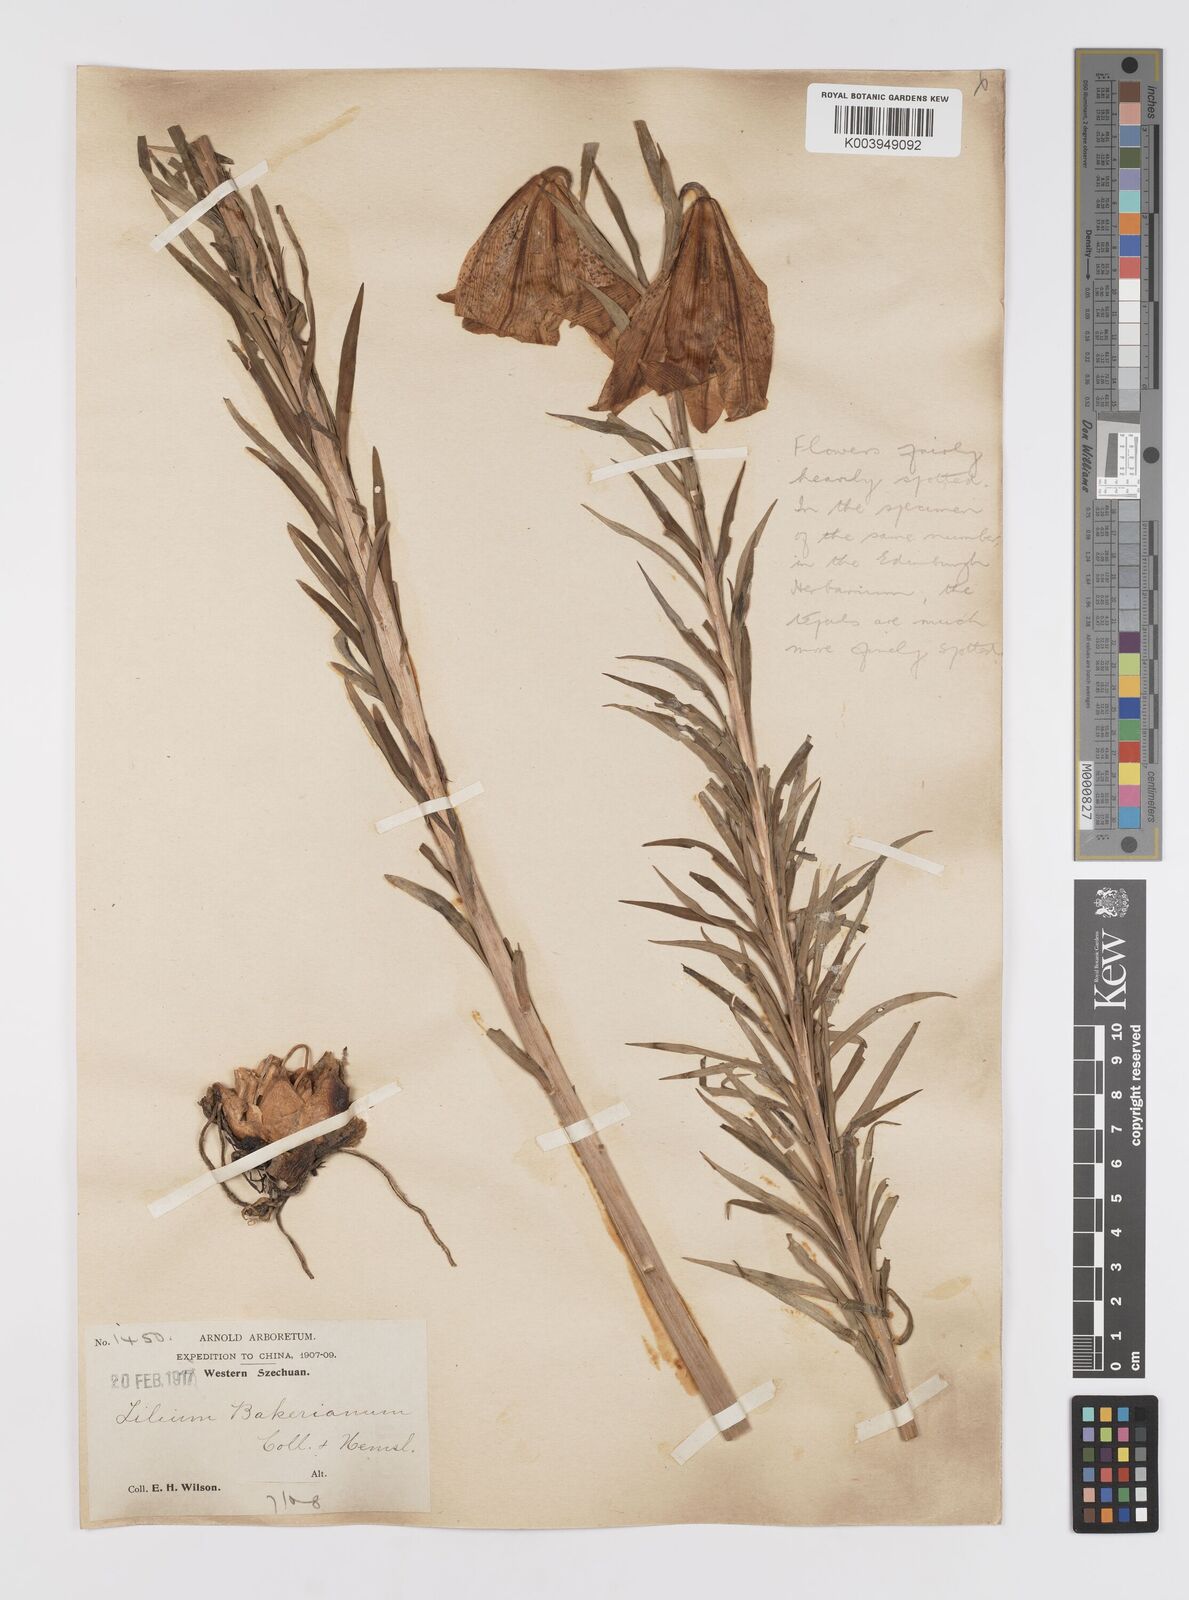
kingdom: Plantae
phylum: Tracheophyta
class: Liliopsida
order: Liliales
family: Liliaceae
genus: Lilium
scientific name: Lilium bakerianum
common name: Baker's lily
